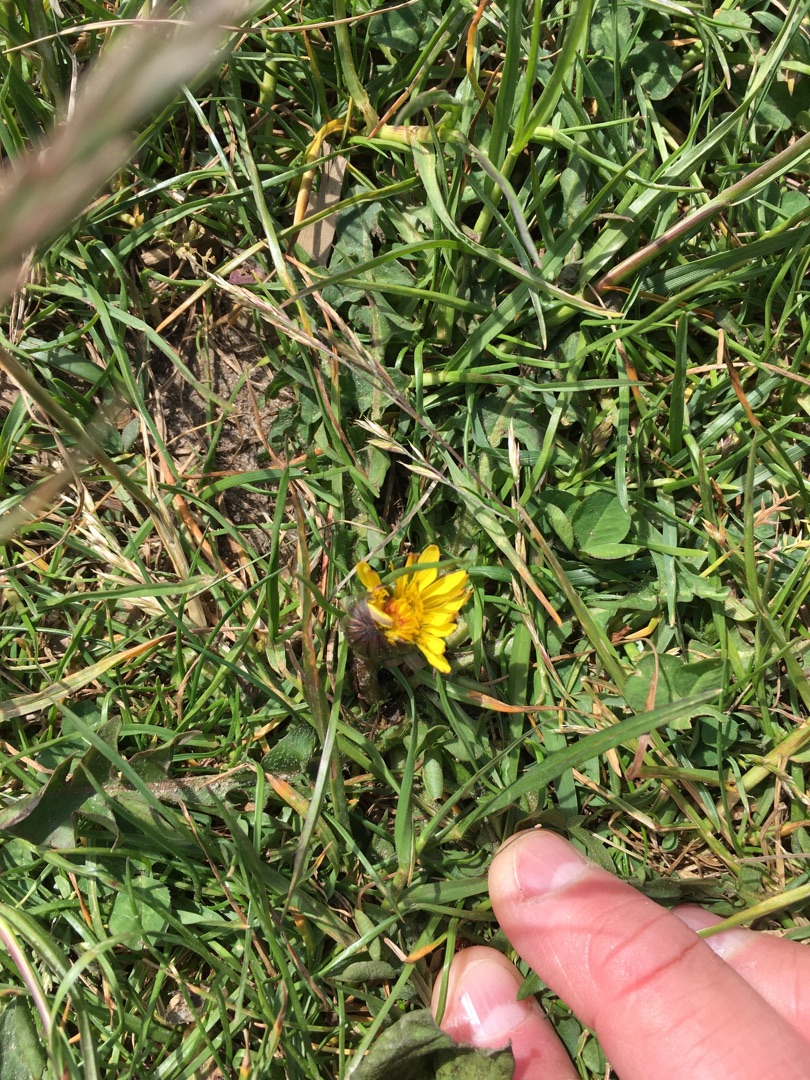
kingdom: Plantae
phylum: Tracheophyta
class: Magnoliopsida
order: Asterales
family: Asteraceae
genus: Taraxacum
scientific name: Taraxacum
